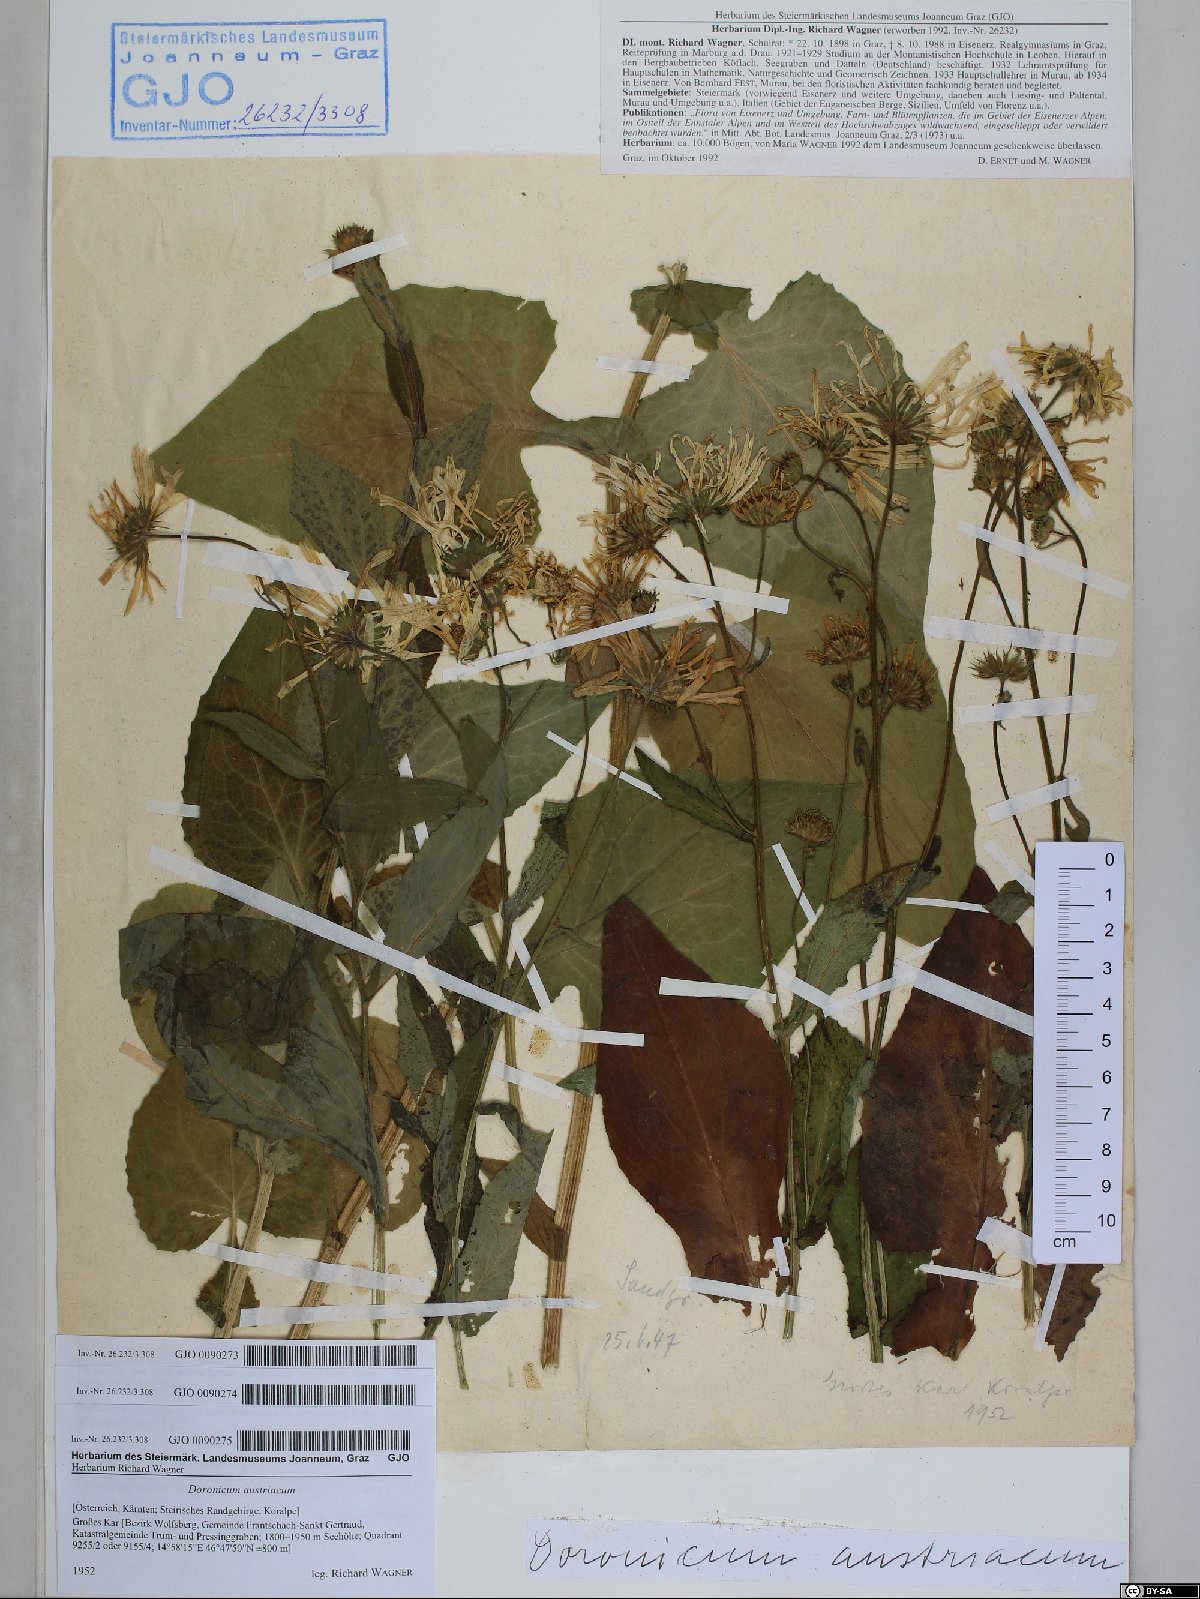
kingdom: Plantae
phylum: Tracheophyta
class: Magnoliopsida
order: Asterales
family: Asteraceae
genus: Doronicum
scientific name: Doronicum austriacum
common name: Austrian leopard's-bane
